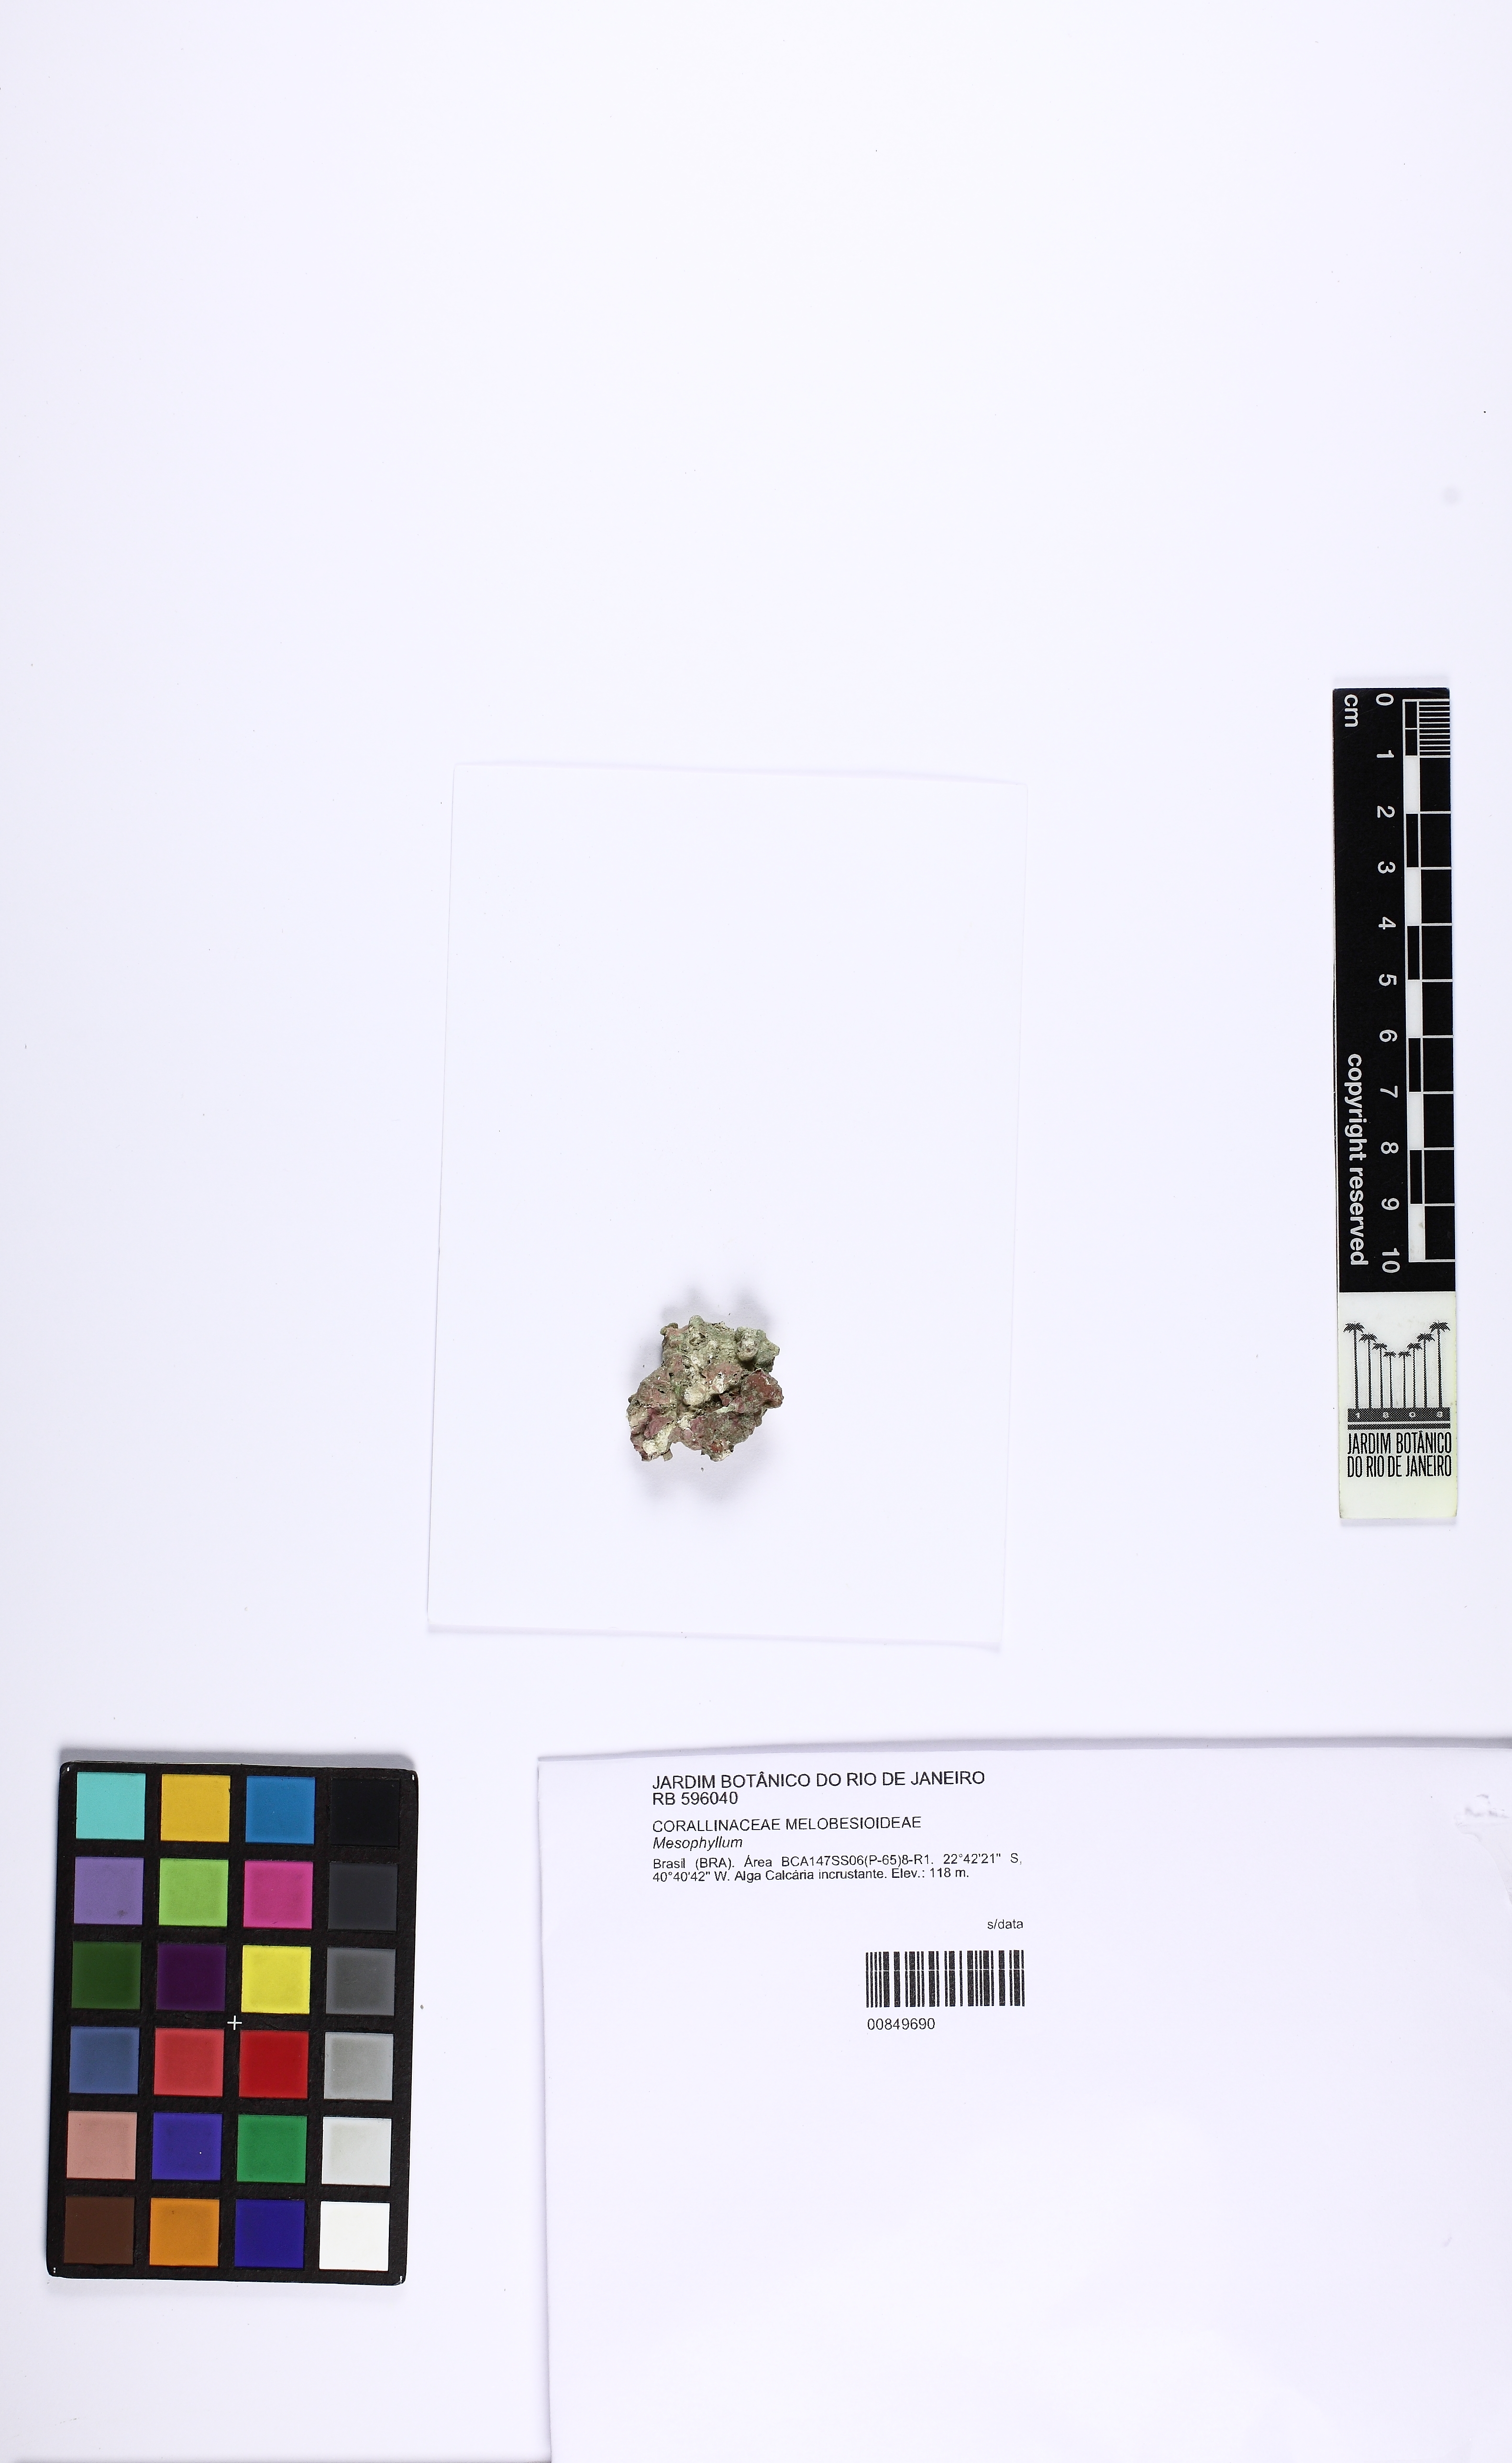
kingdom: Plantae
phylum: Rhodophyta
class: Florideophyceae
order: Corallinales
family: Mesophyllumaceae
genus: Mesophyllum
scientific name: Mesophyllum
